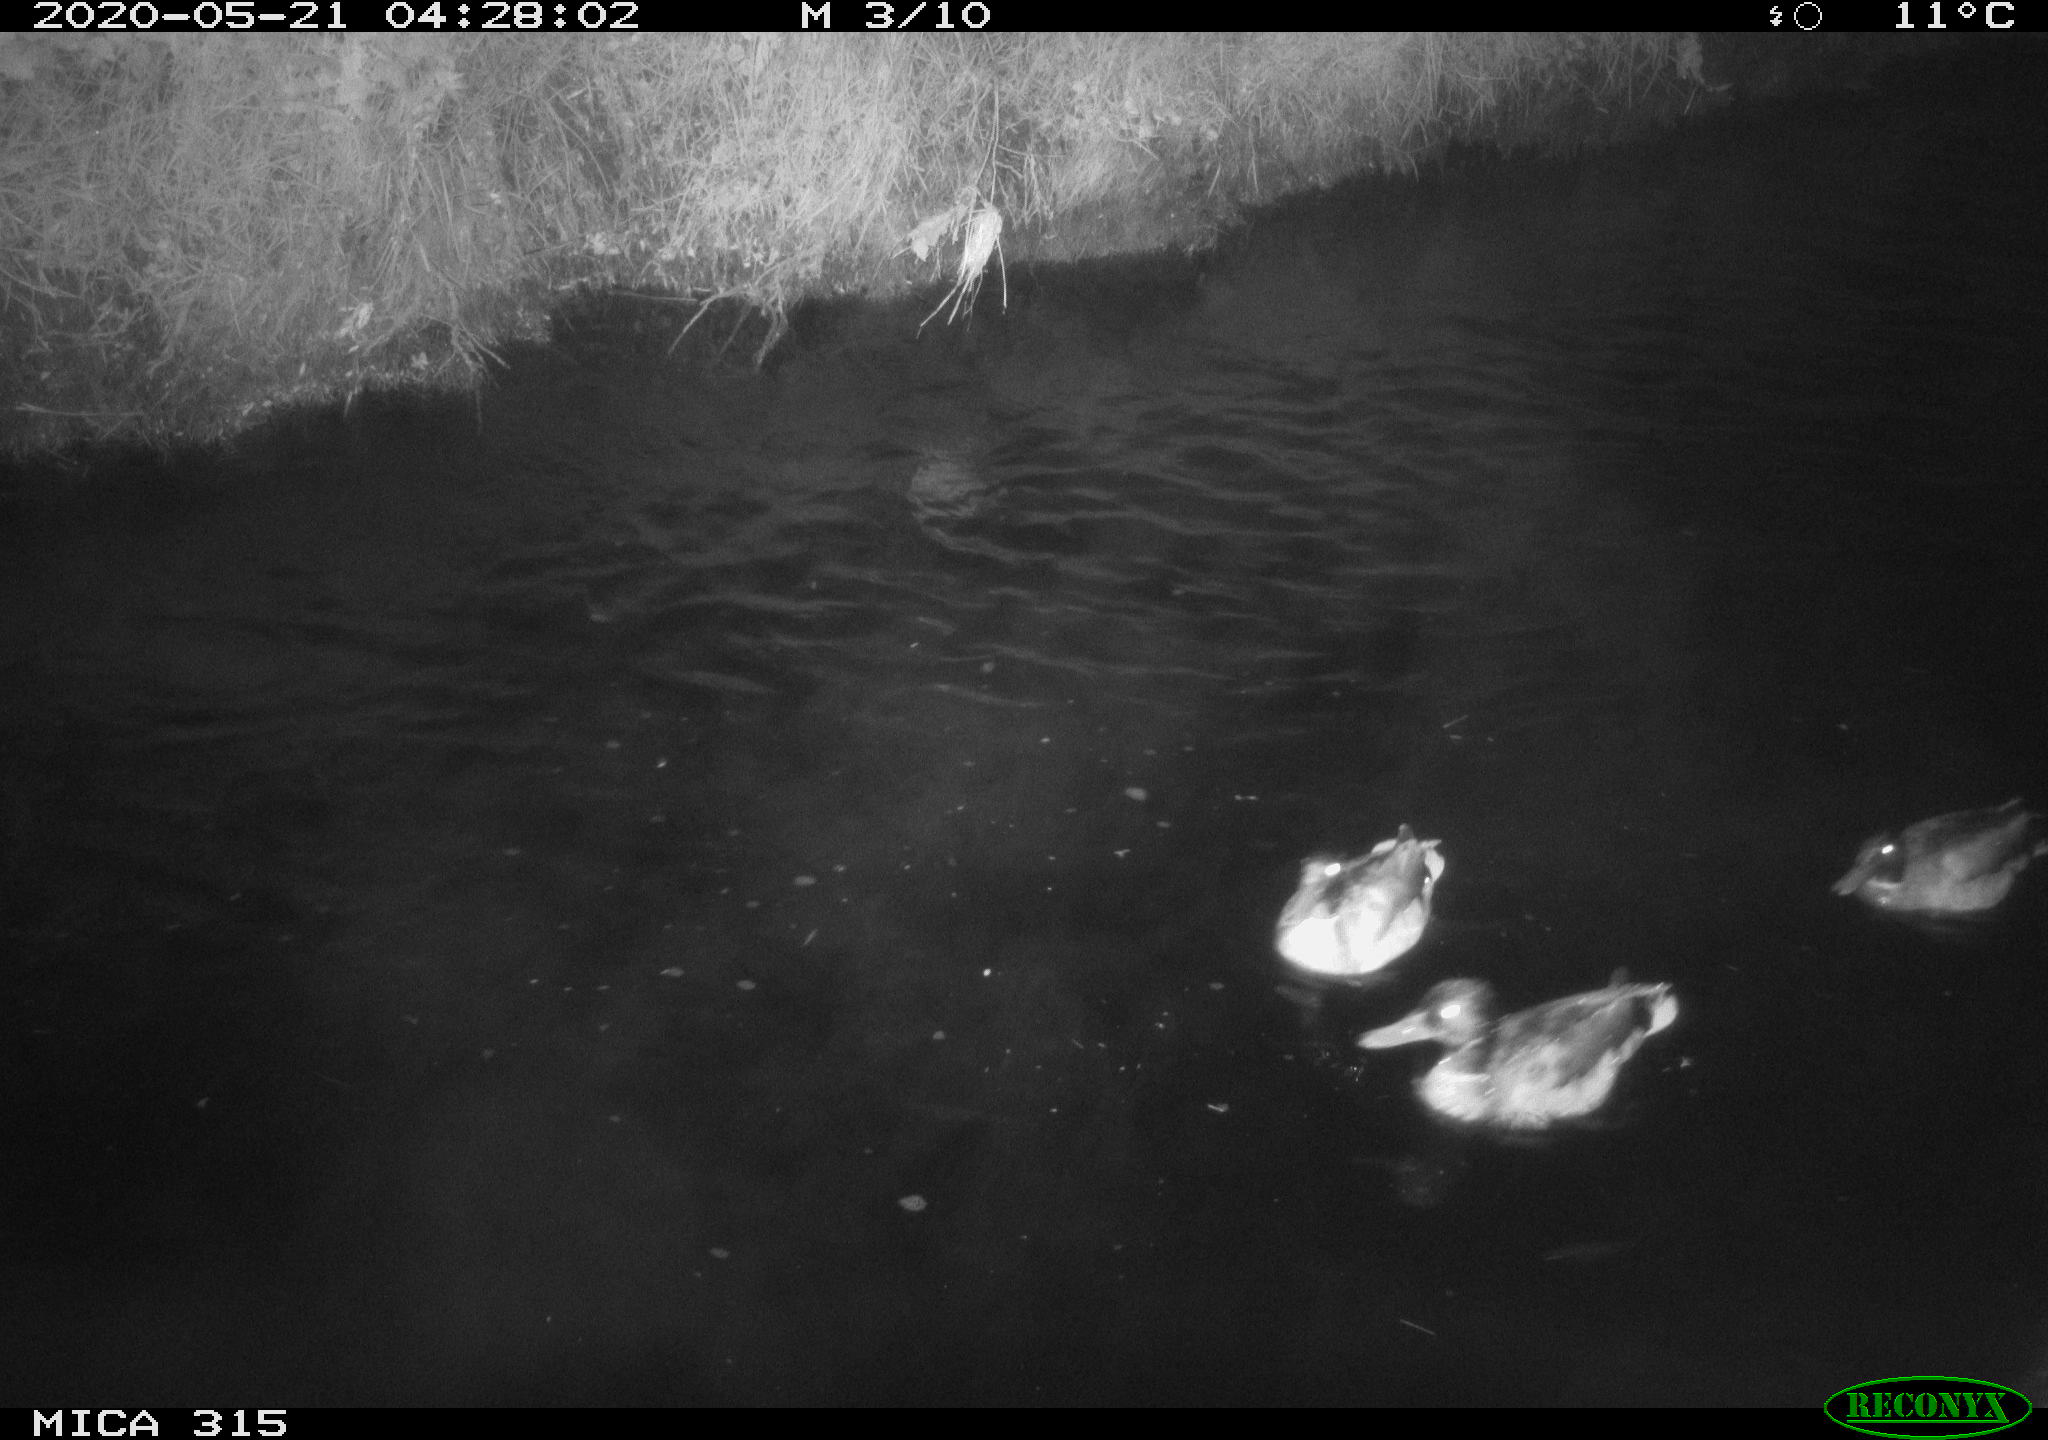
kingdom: Animalia
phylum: Chordata
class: Aves
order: Anseriformes
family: Anatidae
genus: Anas
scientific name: Anas platyrhynchos
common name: Mallard
